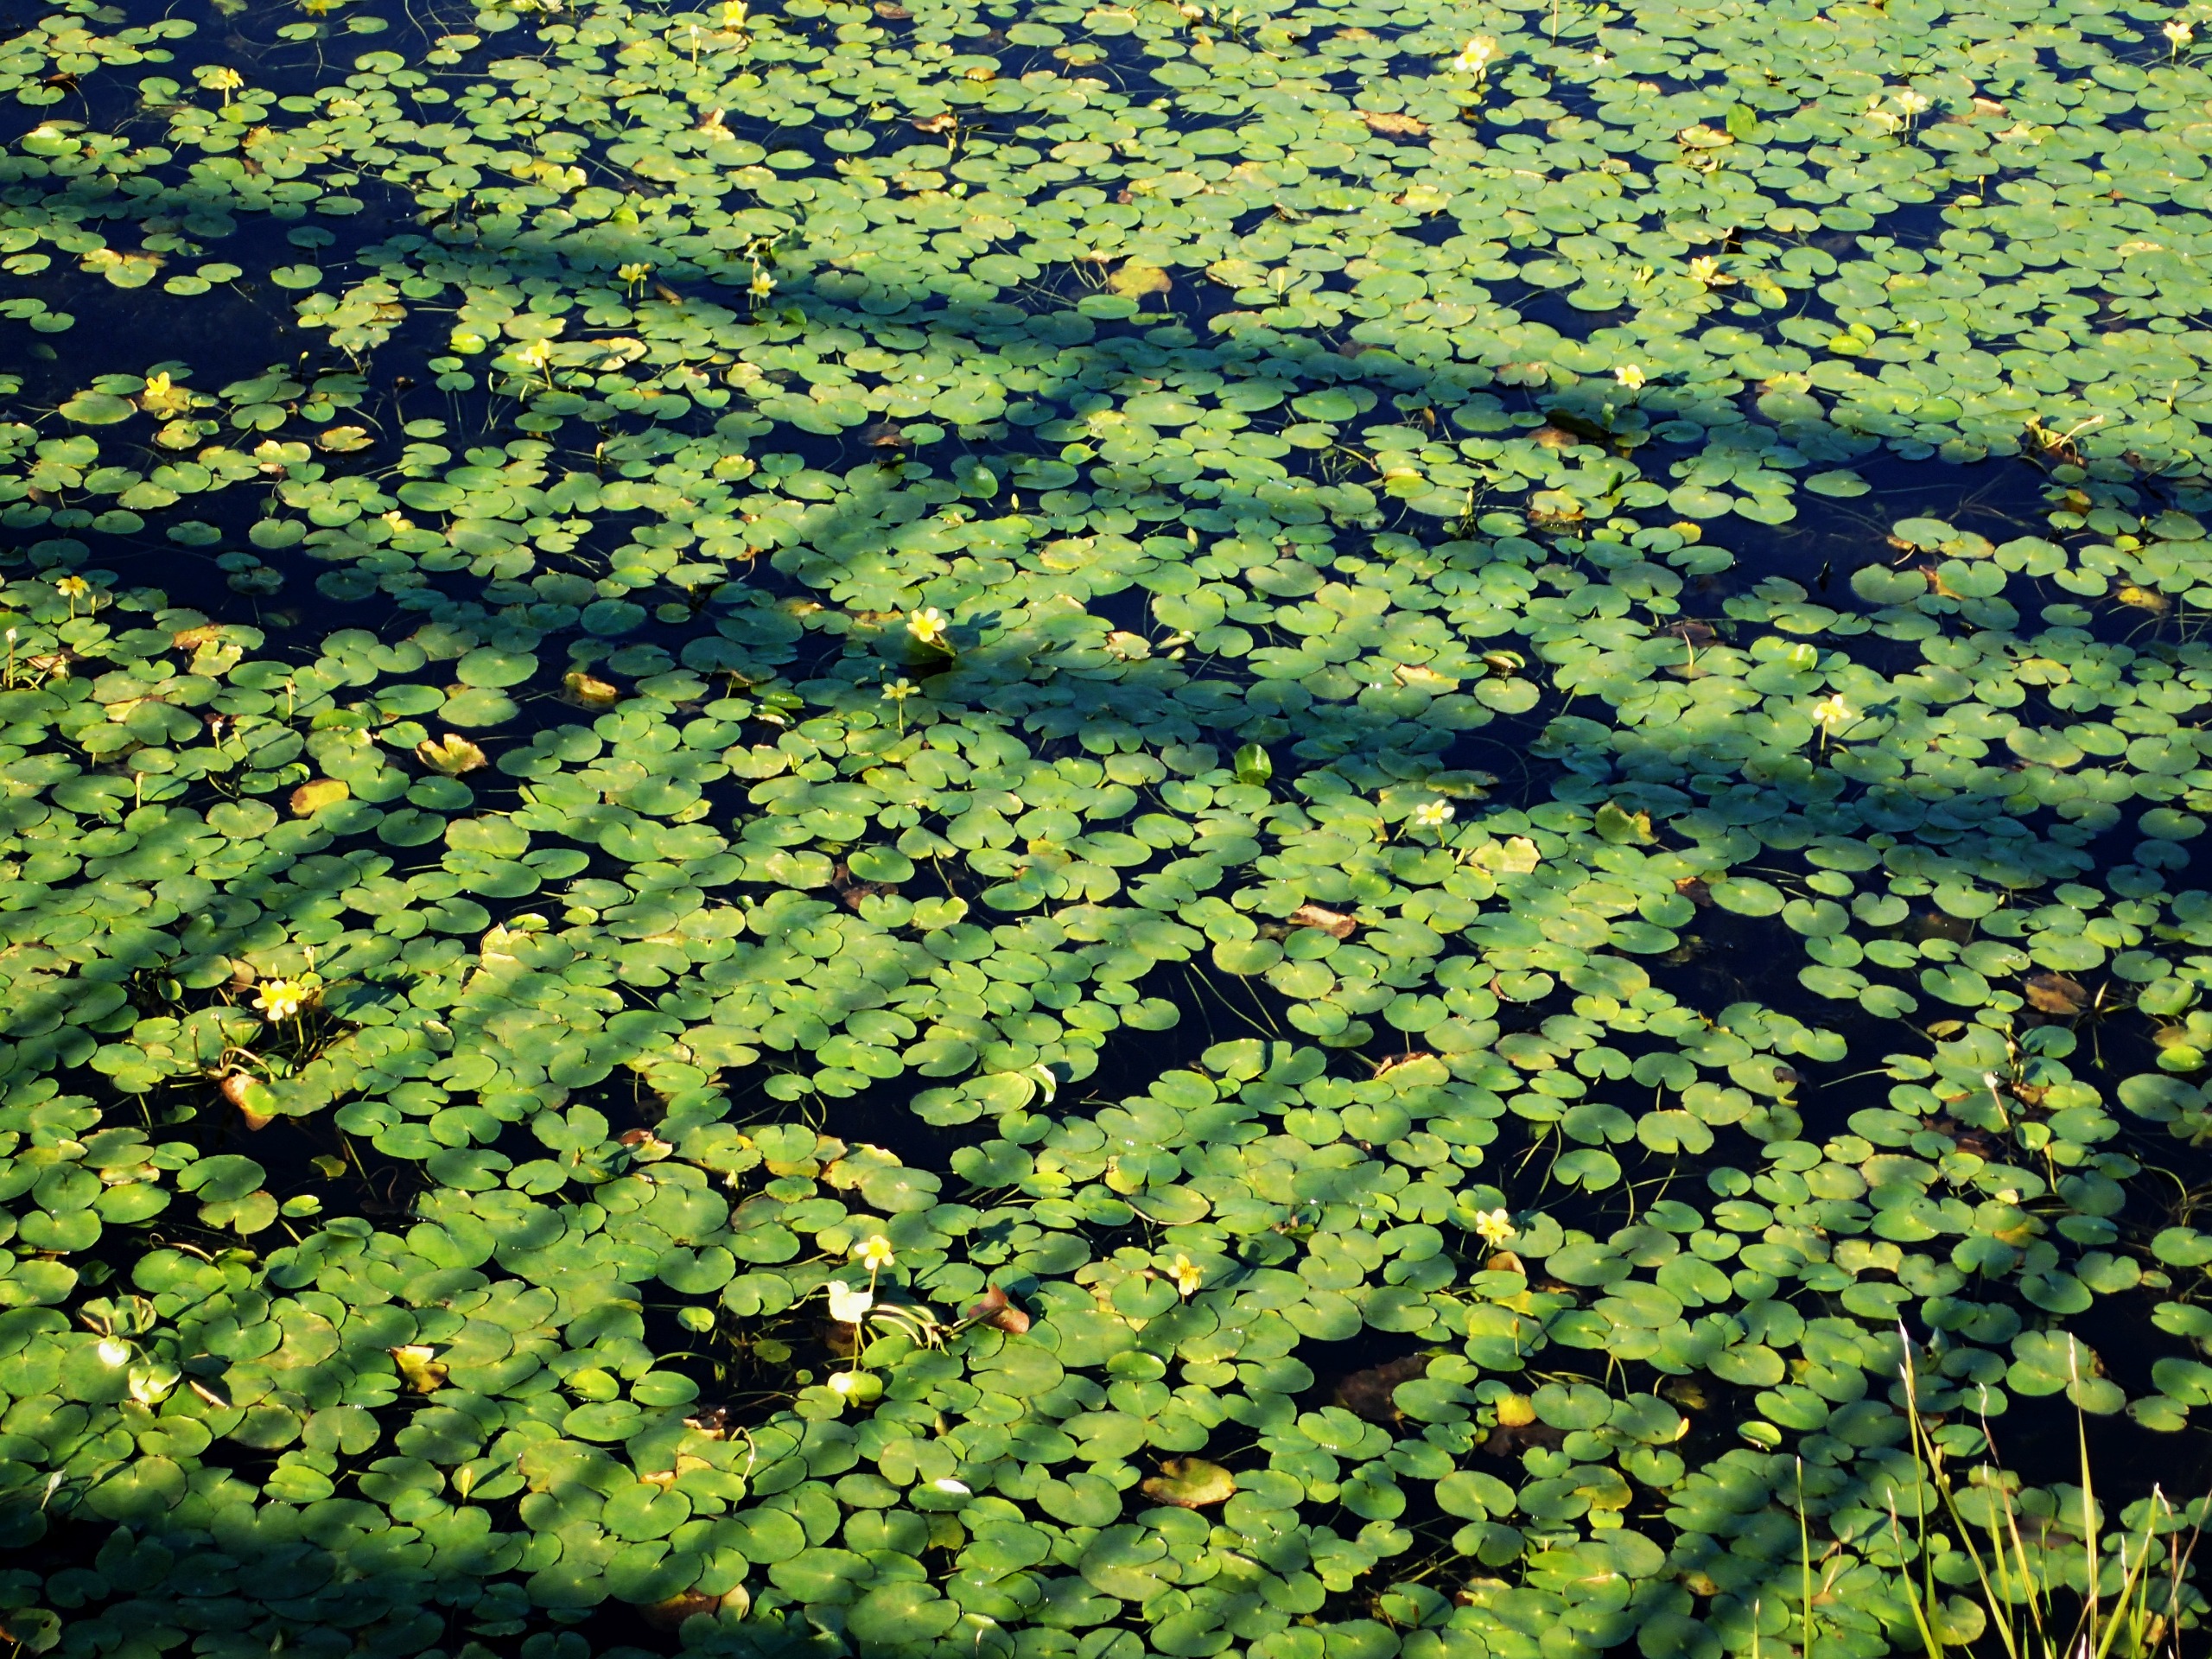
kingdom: Plantae
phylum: Tracheophyta
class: Magnoliopsida
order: Asterales
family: Menyanthaceae
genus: Nymphoides
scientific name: Nymphoides peltata
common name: Søblad
